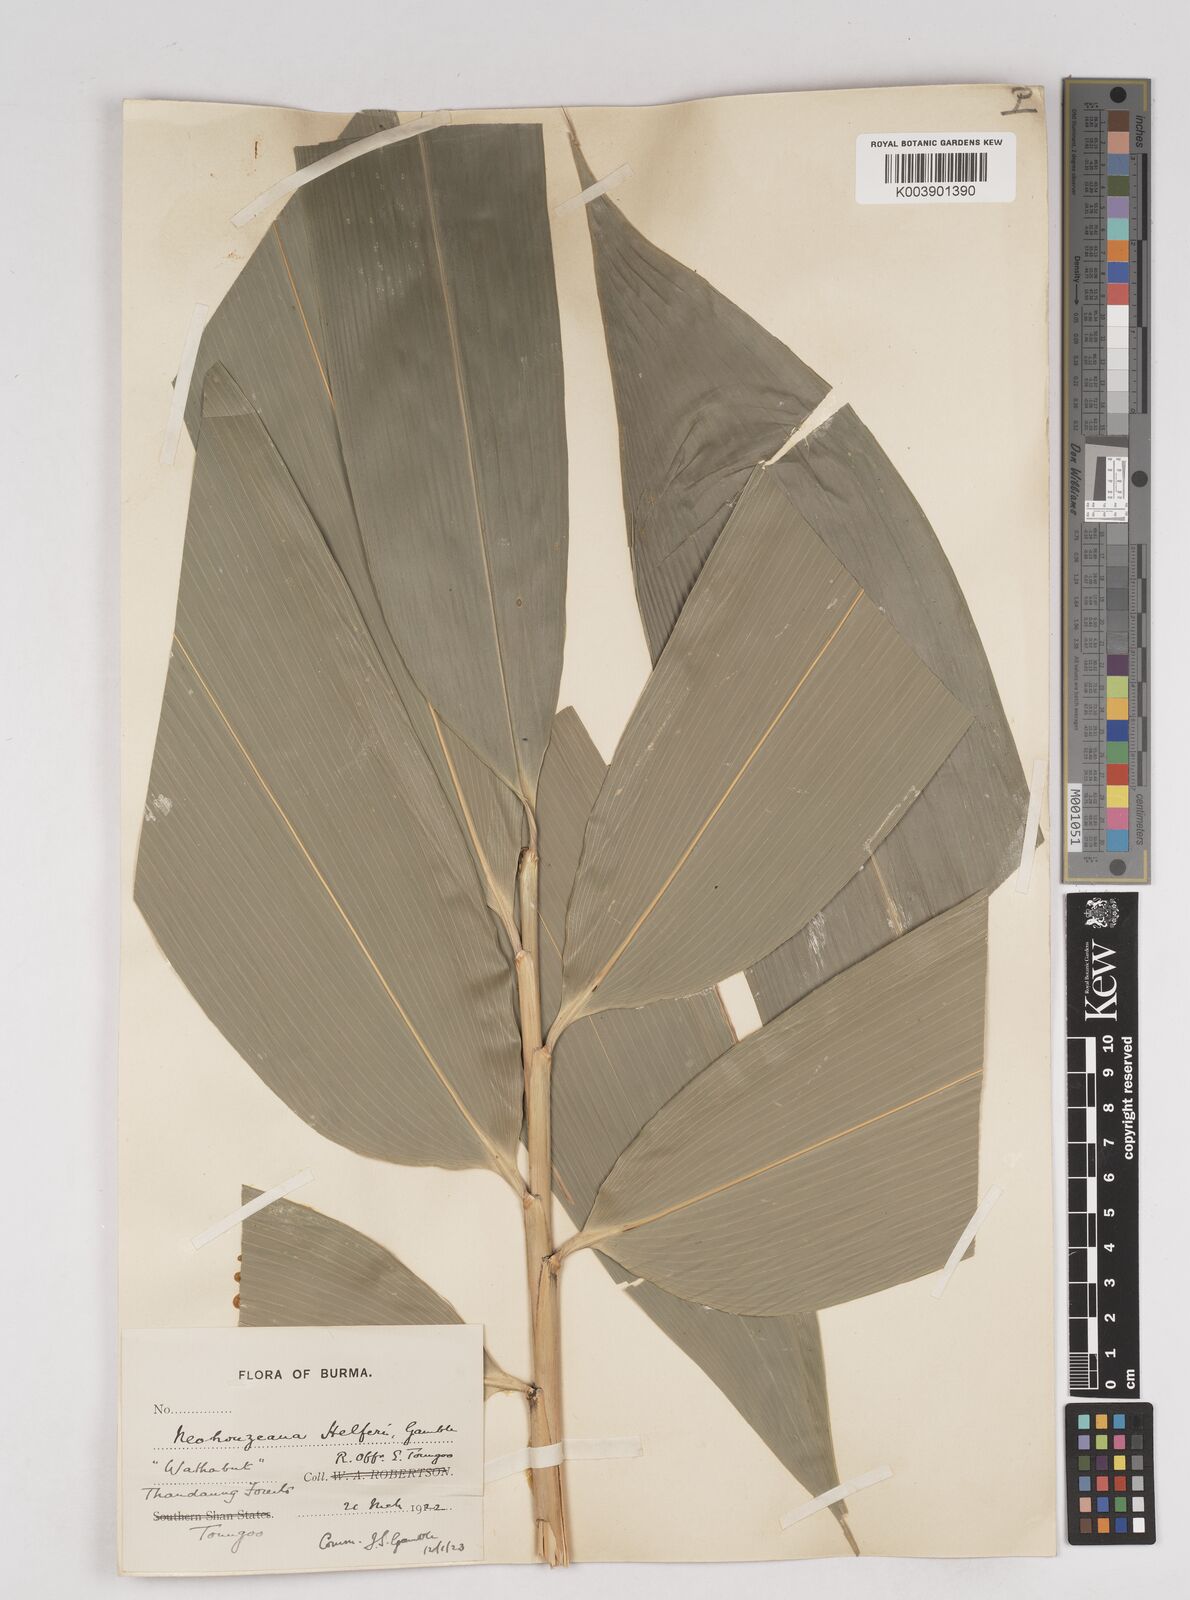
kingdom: Plantae
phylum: Tracheophyta
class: Liliopsida
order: Poales
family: Poaceae
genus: Schizostachyum
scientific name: Schizostachyum helferi
